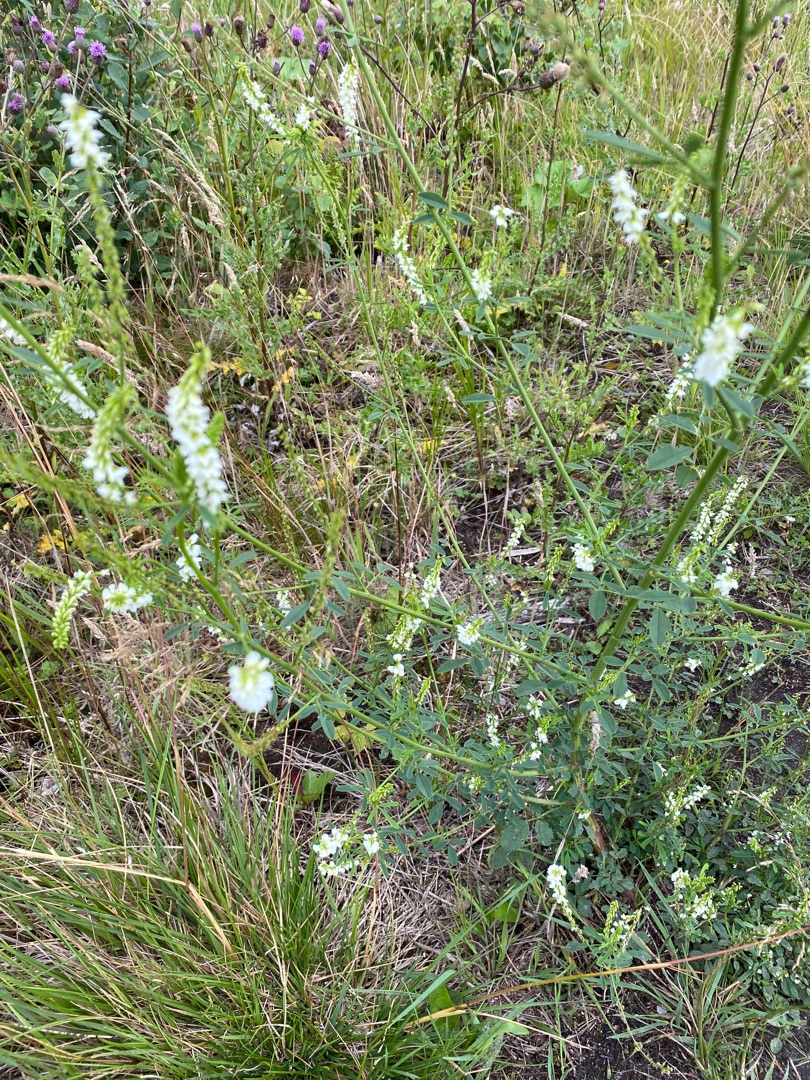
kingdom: Plantae
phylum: Tracheophyta
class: Magnoliopsida
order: Fabales
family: Fabaceae
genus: Melilotus
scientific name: Melilotus albus
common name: Hvid stenkløver
